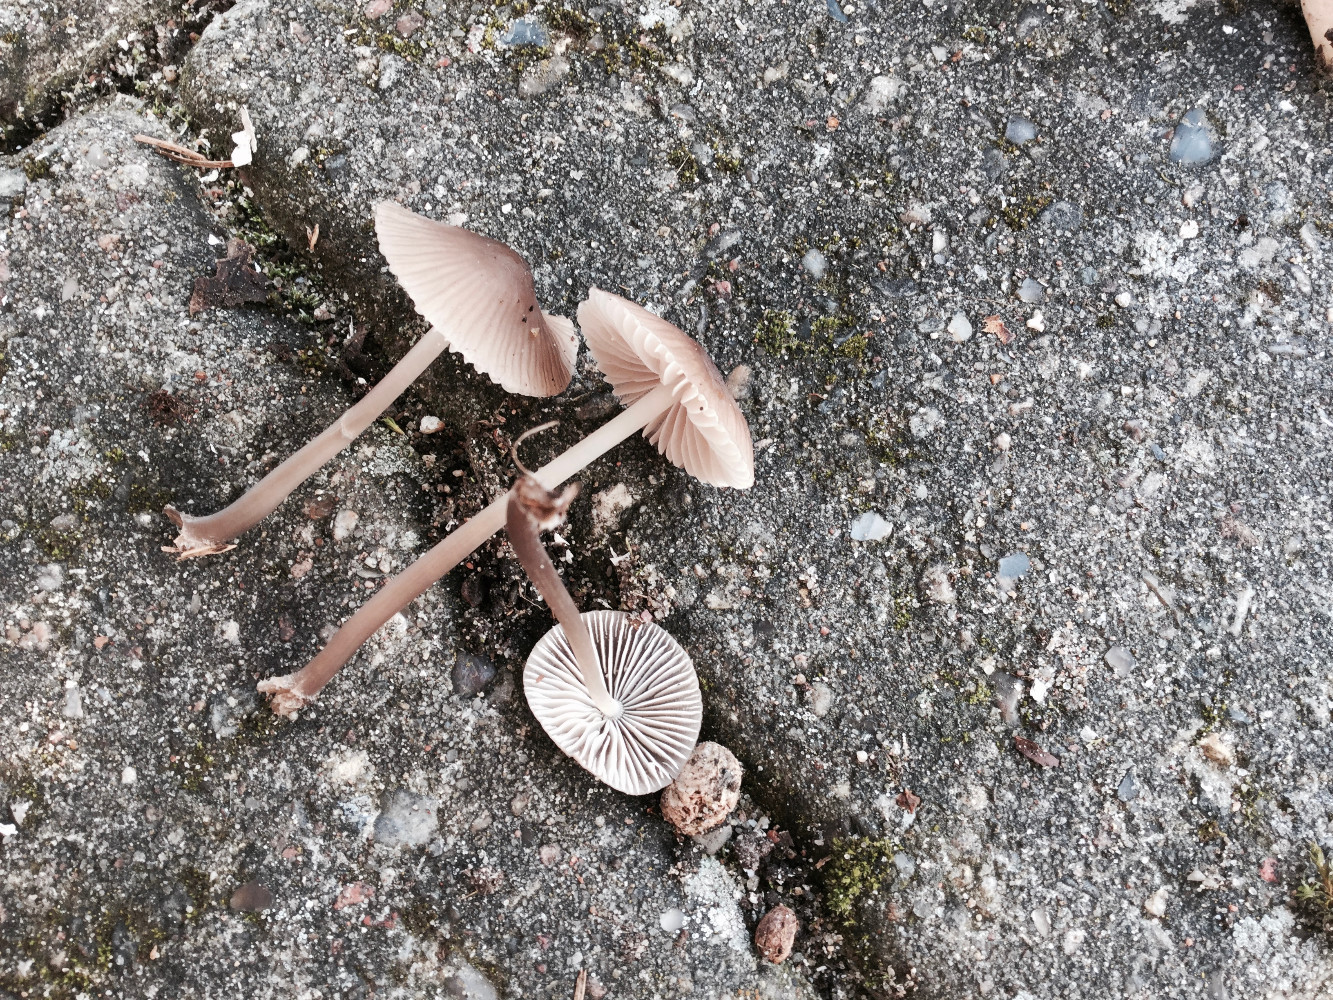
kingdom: Fungi
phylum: Basidiomycota
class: Agaricomycetes
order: Agaricales
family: Mycenaceae
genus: Mycena
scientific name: Mycena leptocephala
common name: klor-huesvamp
